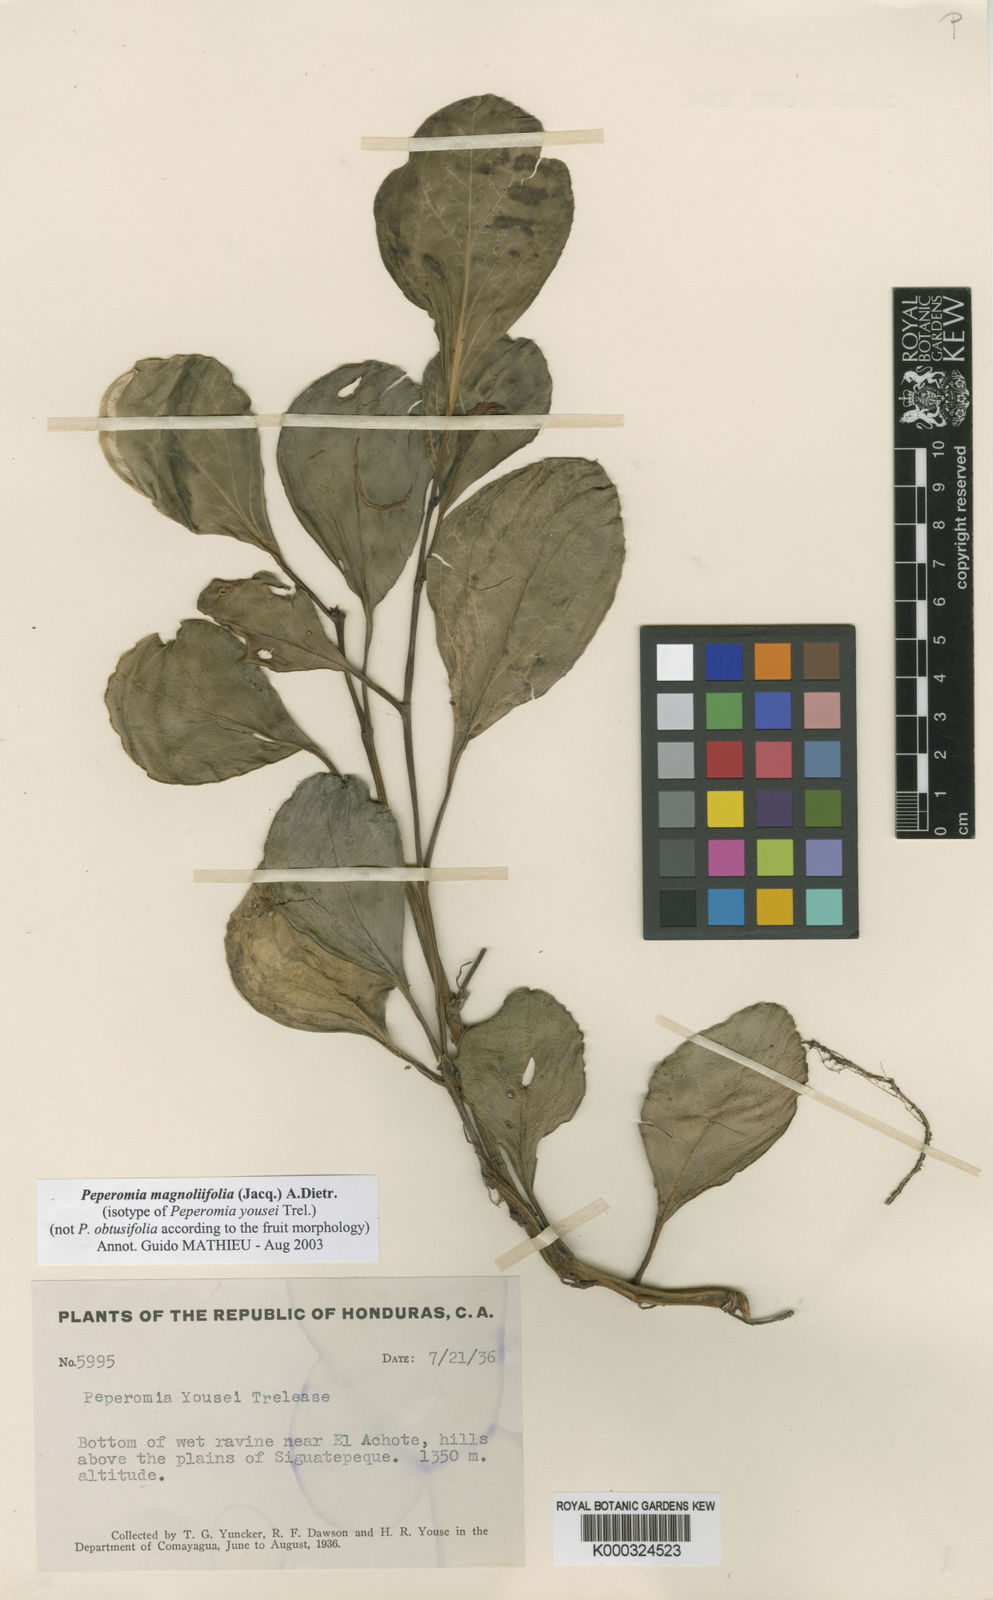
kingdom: Plantae
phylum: Tracheophyta
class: Magnoliopsida
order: Piperales
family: Piperaceae
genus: Peperomia
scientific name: Peperomia magnoliifolia
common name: Spoonleaf peperomia
